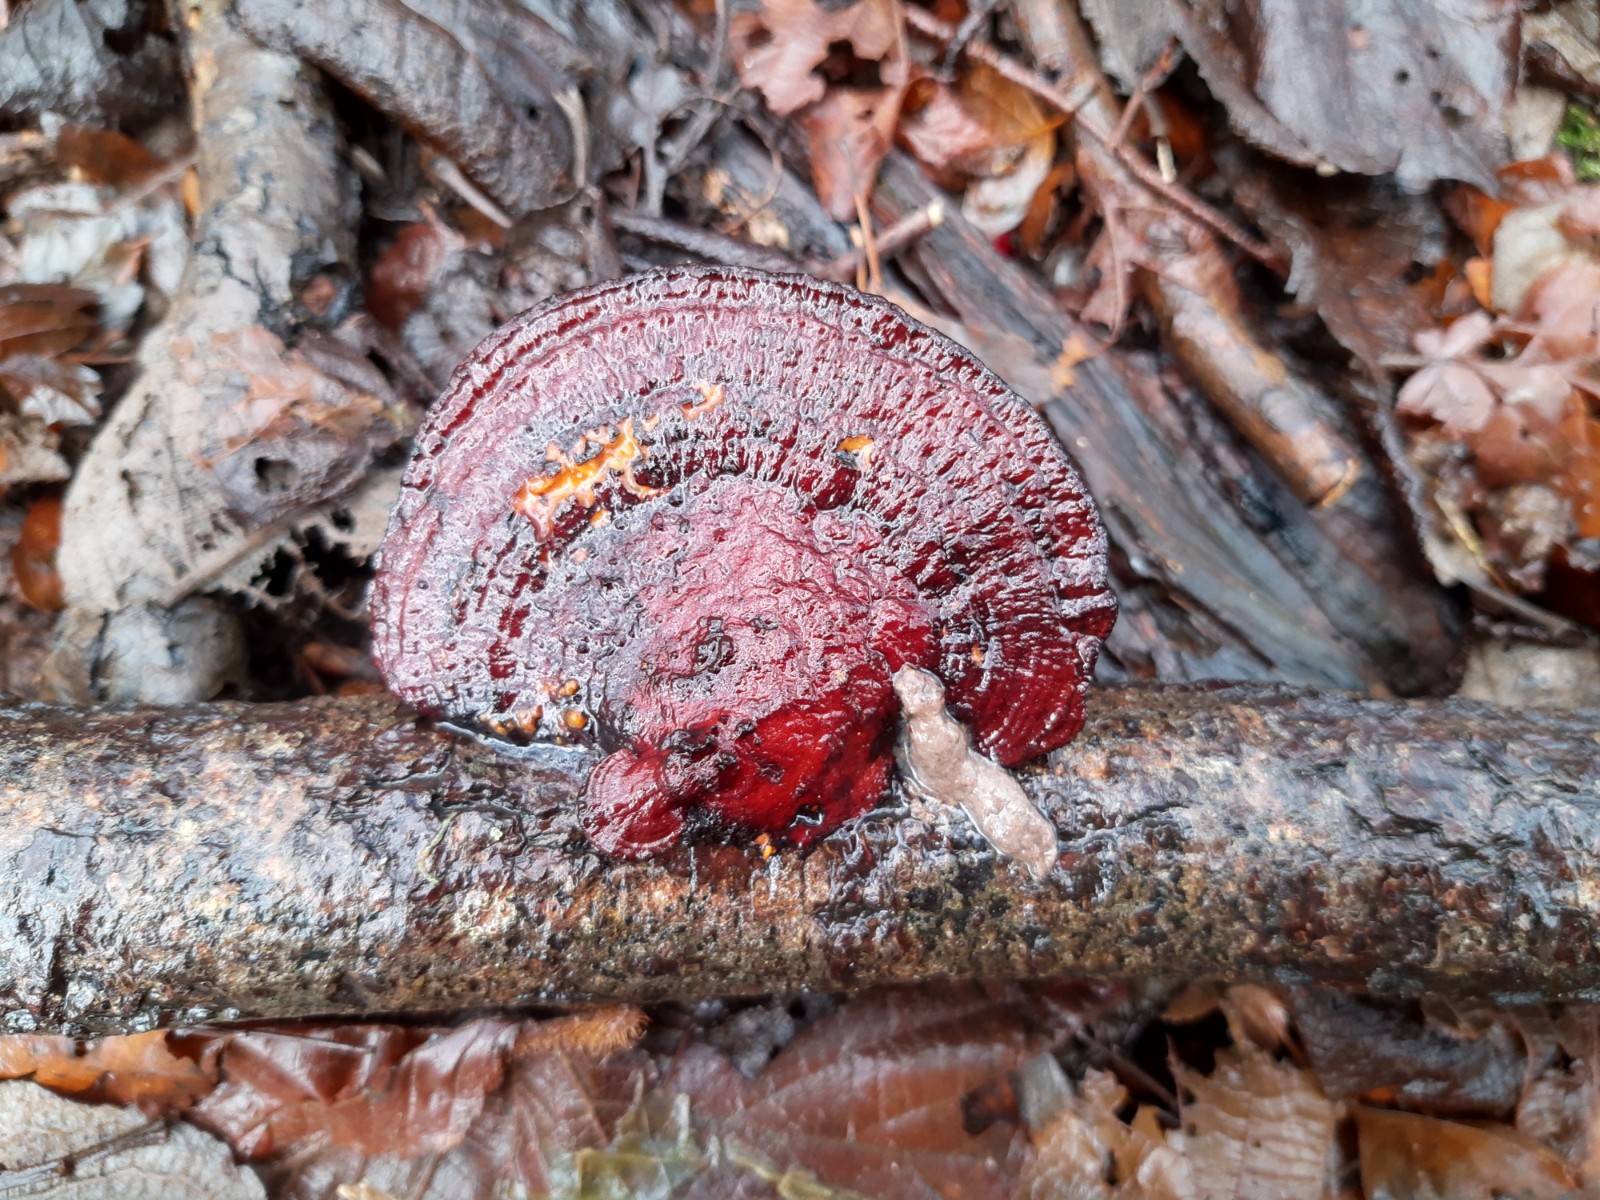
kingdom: Fungi
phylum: Basidiomycota
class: Agaricomycetes
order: Polyporales
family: Polyporaceae
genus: Daedaleopsis
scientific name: Daedaleopsis confragosa
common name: rødmende læderporesvamp
